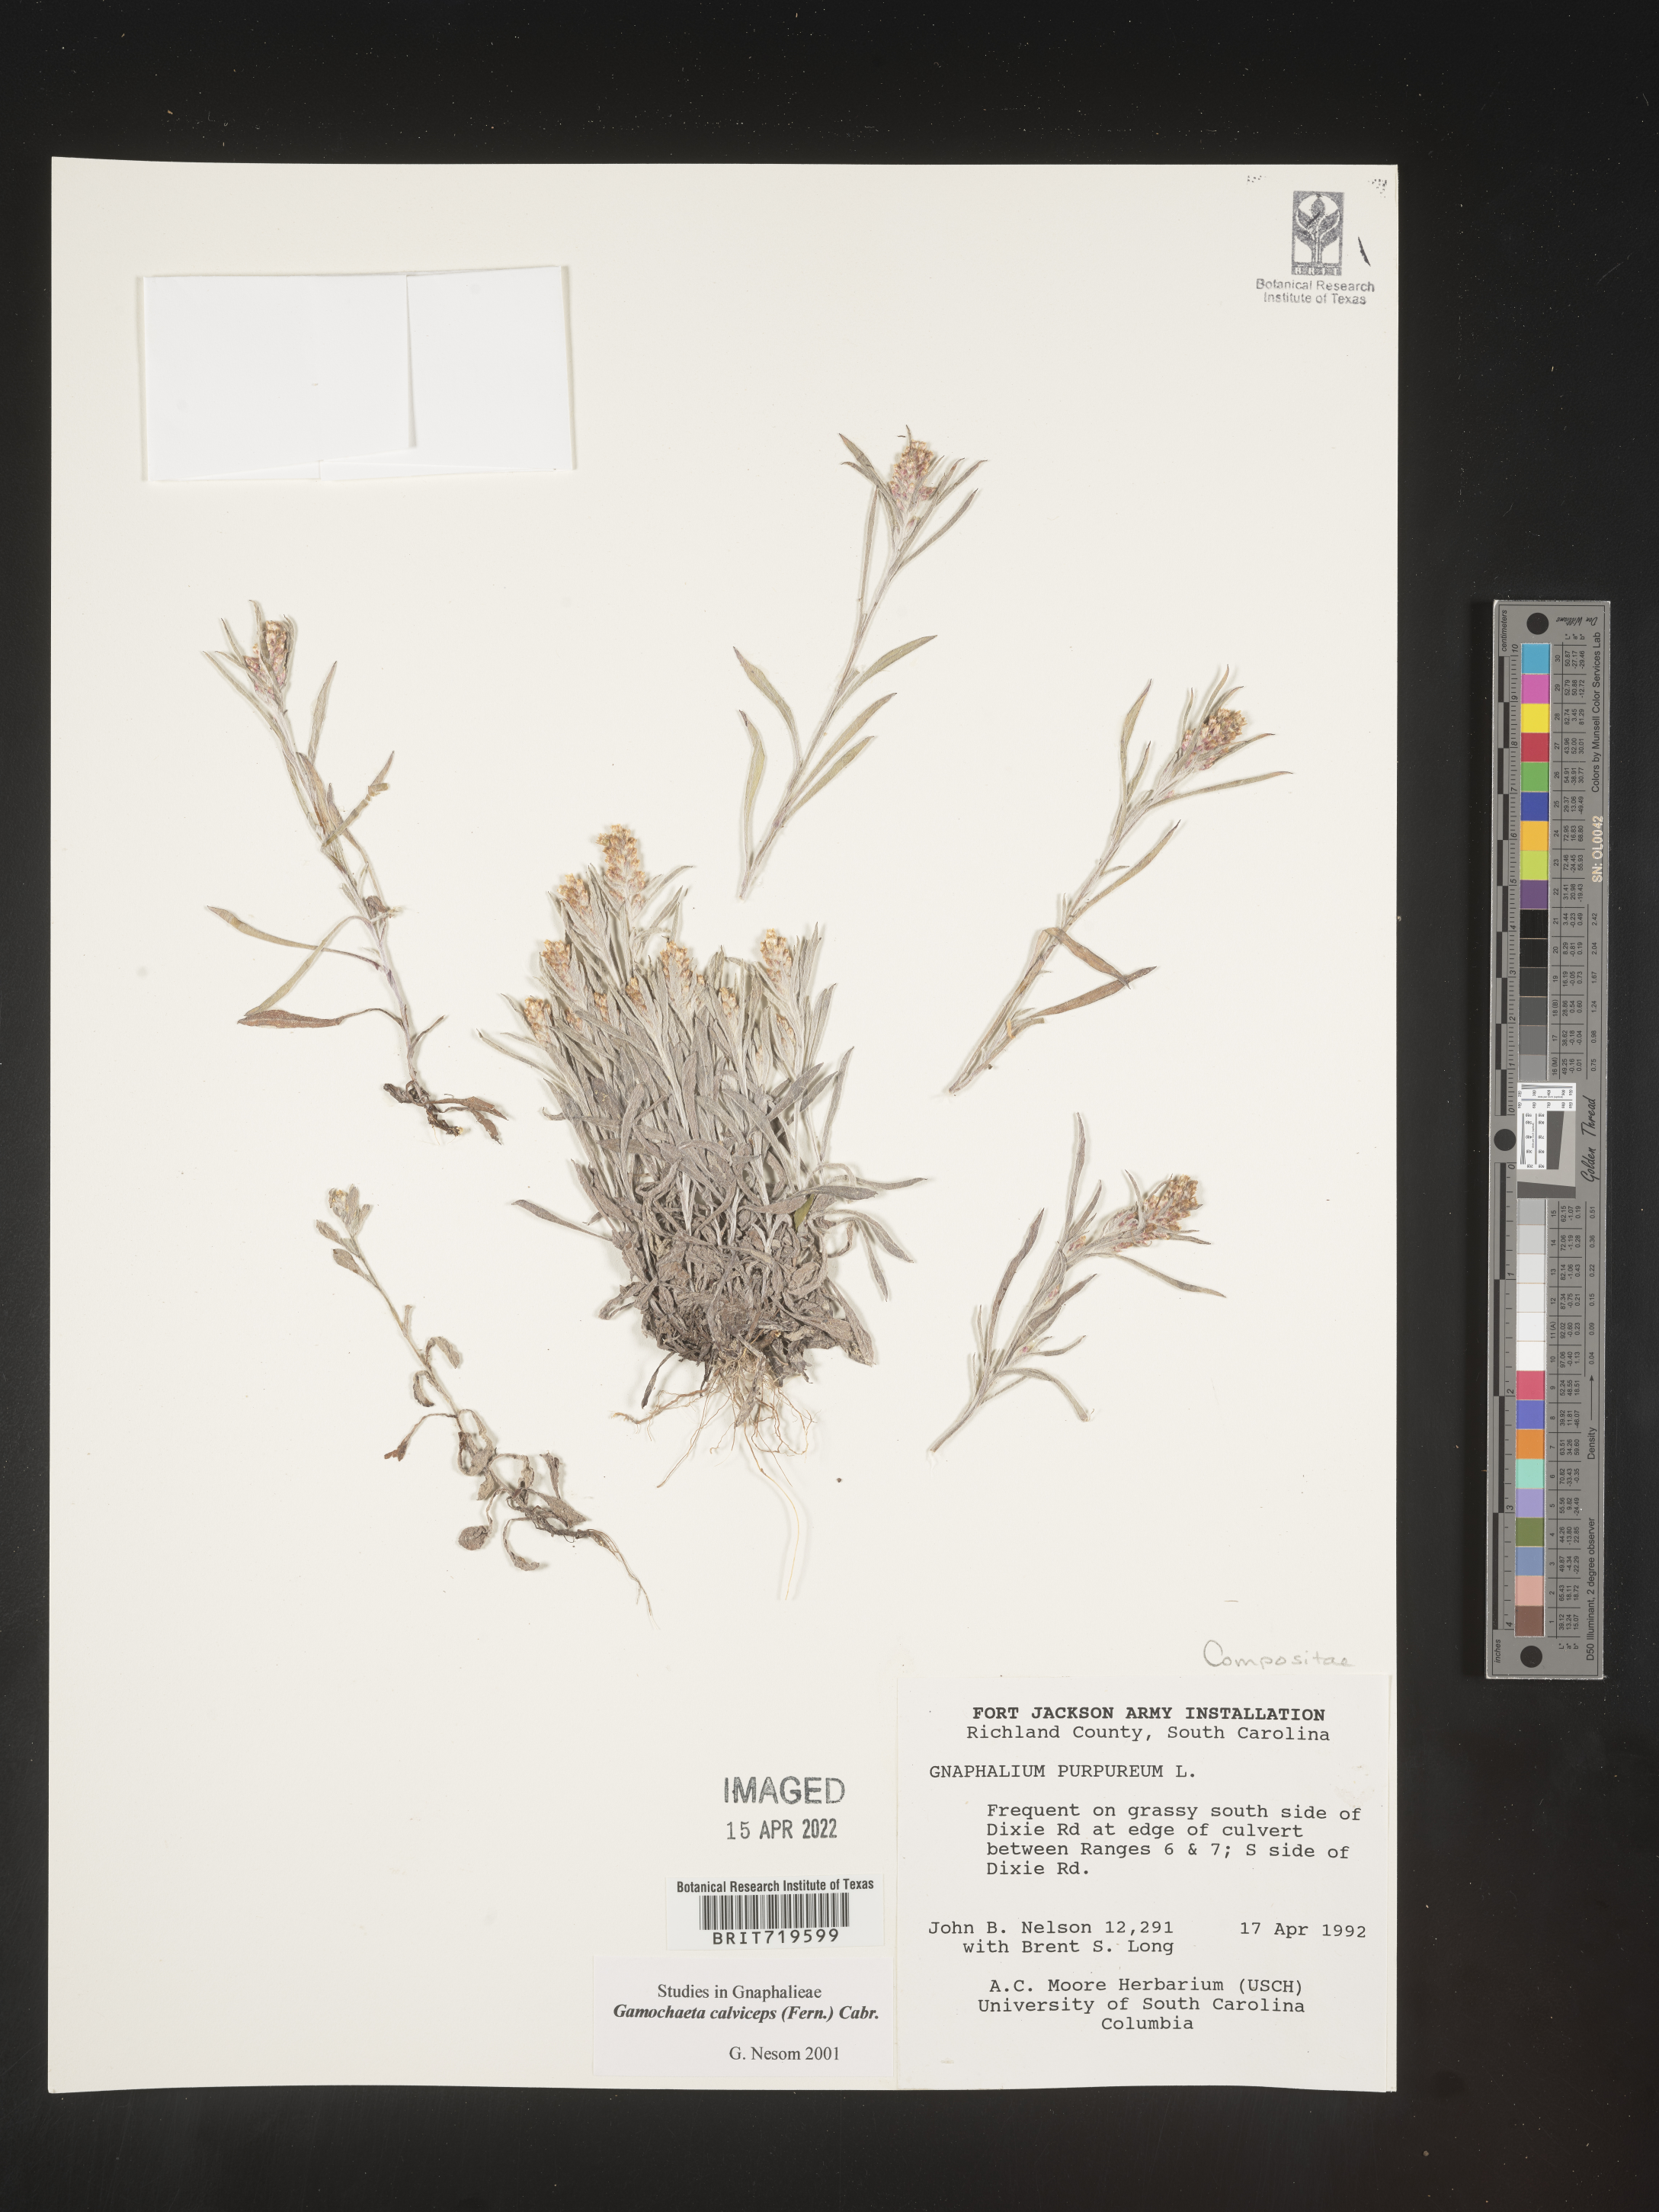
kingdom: Plantae
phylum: Tracheophyta
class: Magnoliopsida
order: Asterales
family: Asteraceae
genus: Gamochaeta
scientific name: Gamochaeta antillana
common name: Delicate everlasting
